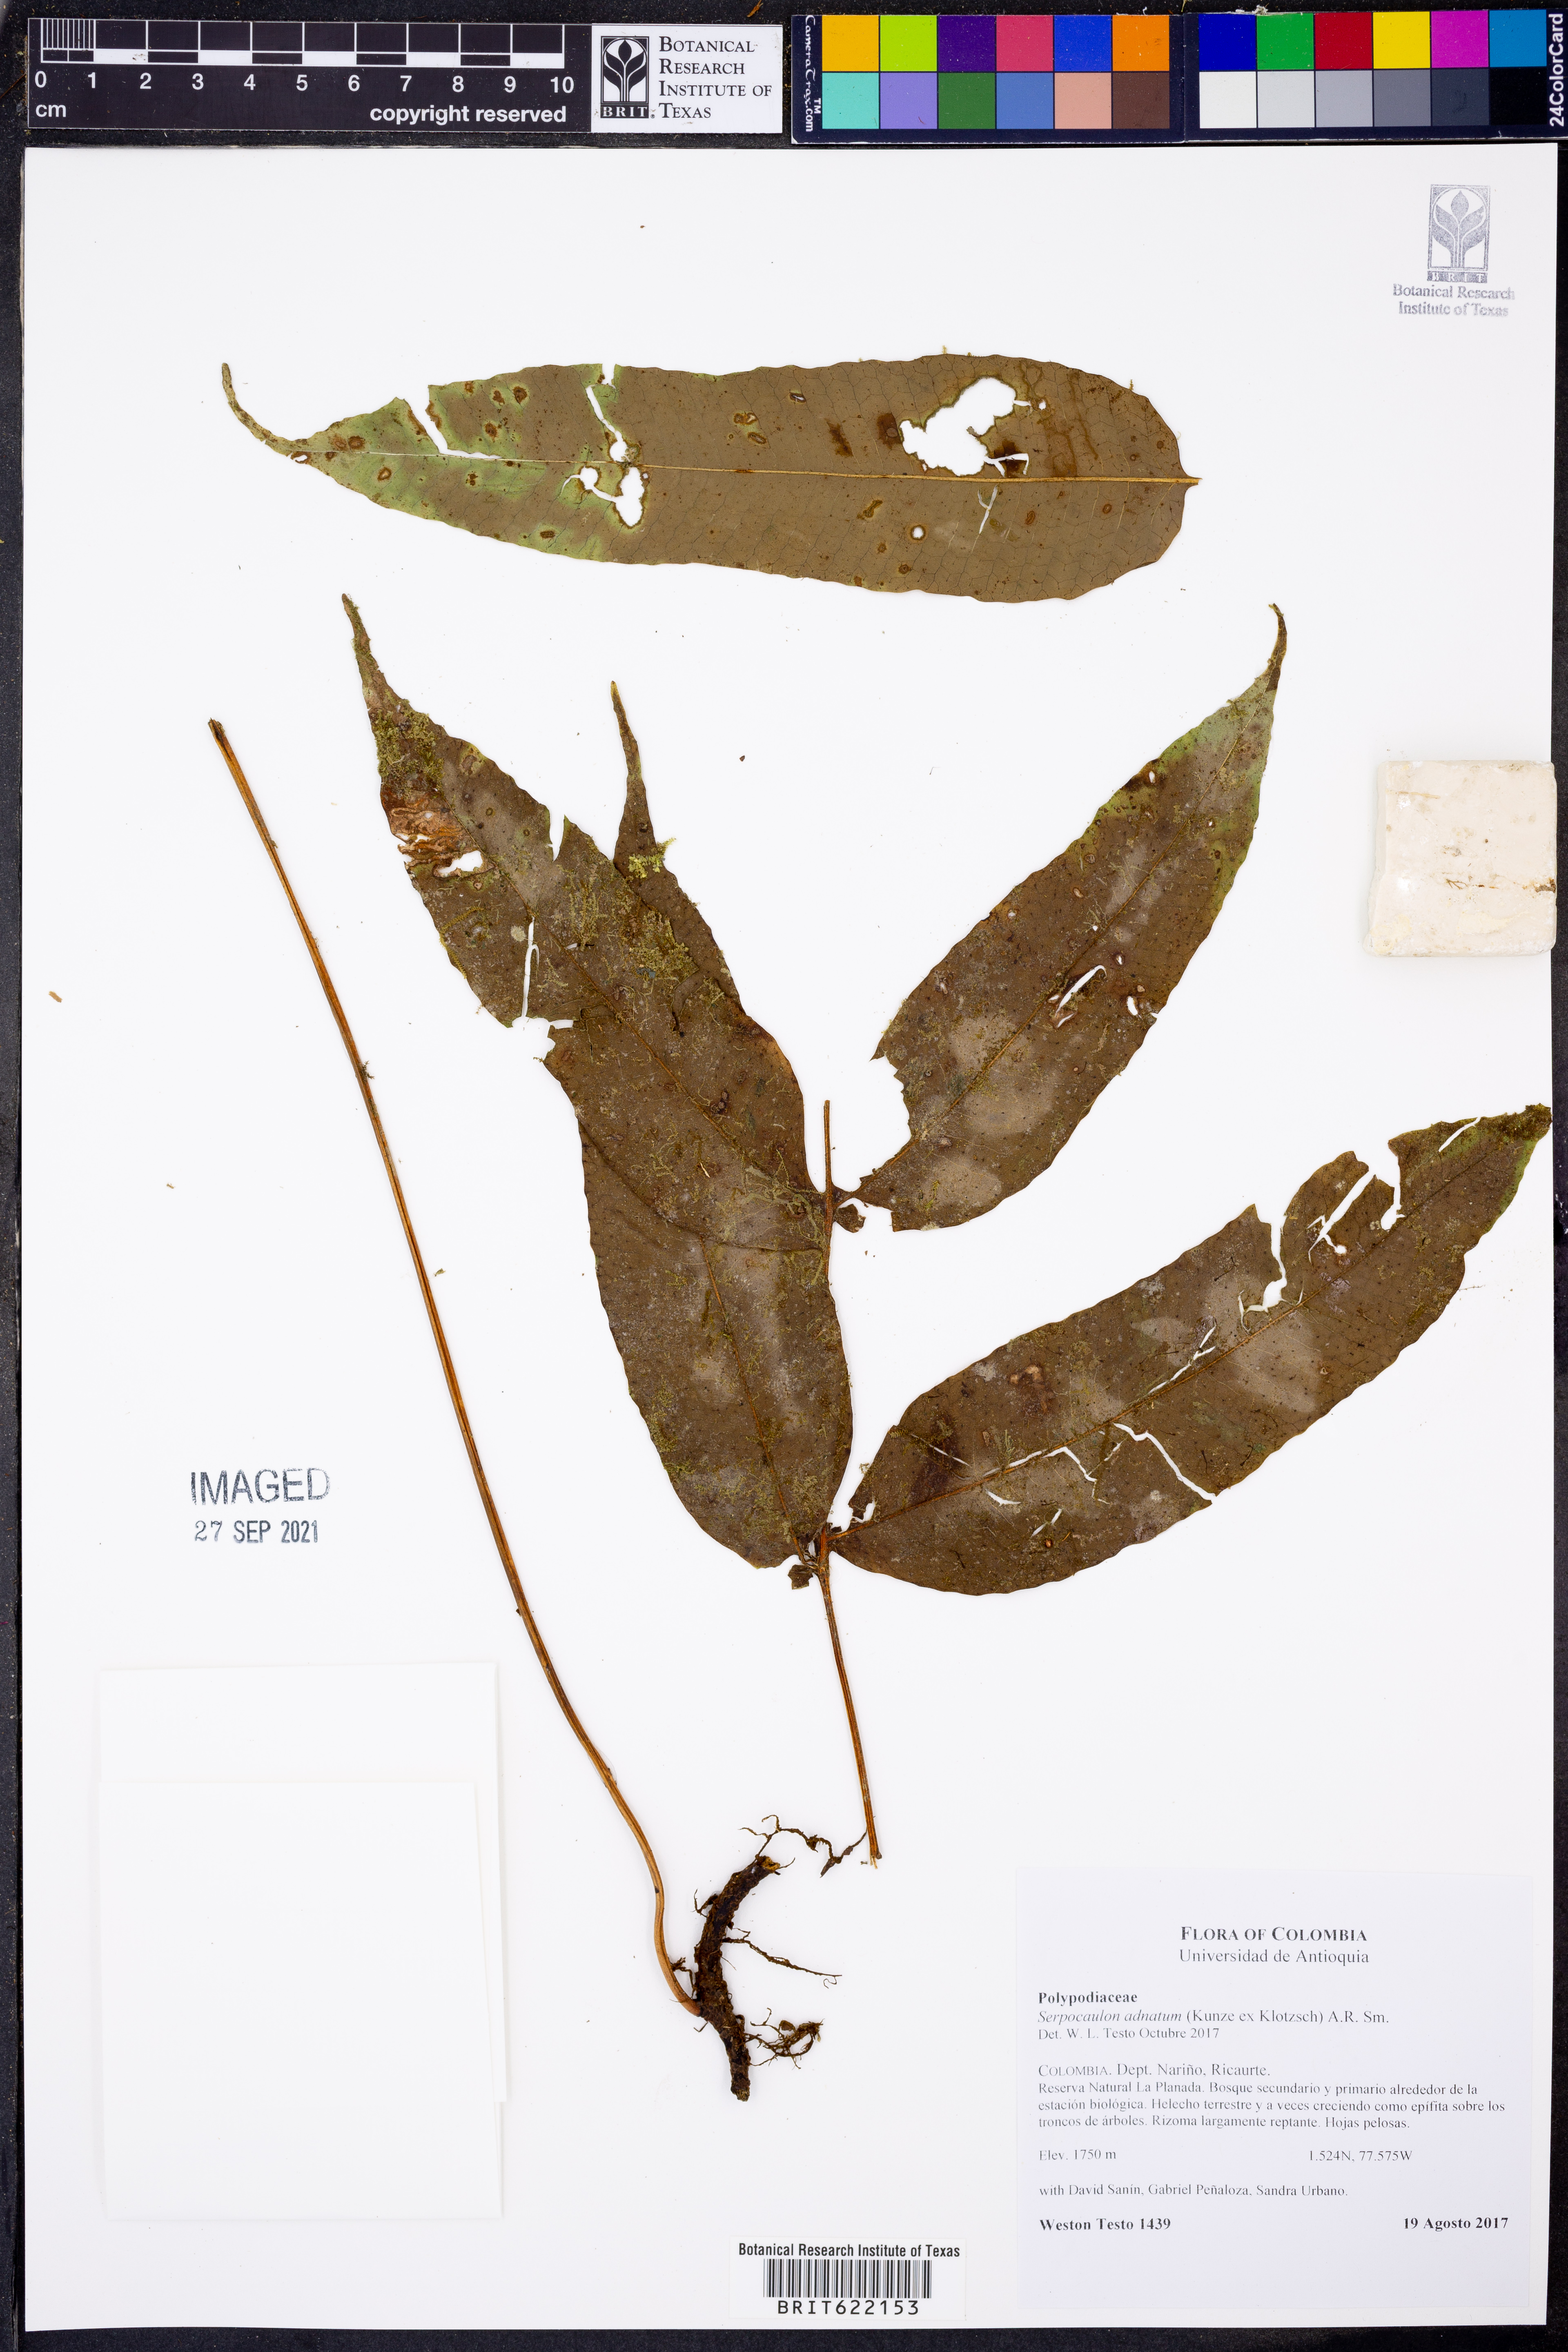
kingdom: Plantae
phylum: Tracheophyta
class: Polypodiopsida
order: Polypodiales
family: Polypodiaceae
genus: Serpocaulon
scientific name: Serpocaulon adnatum
